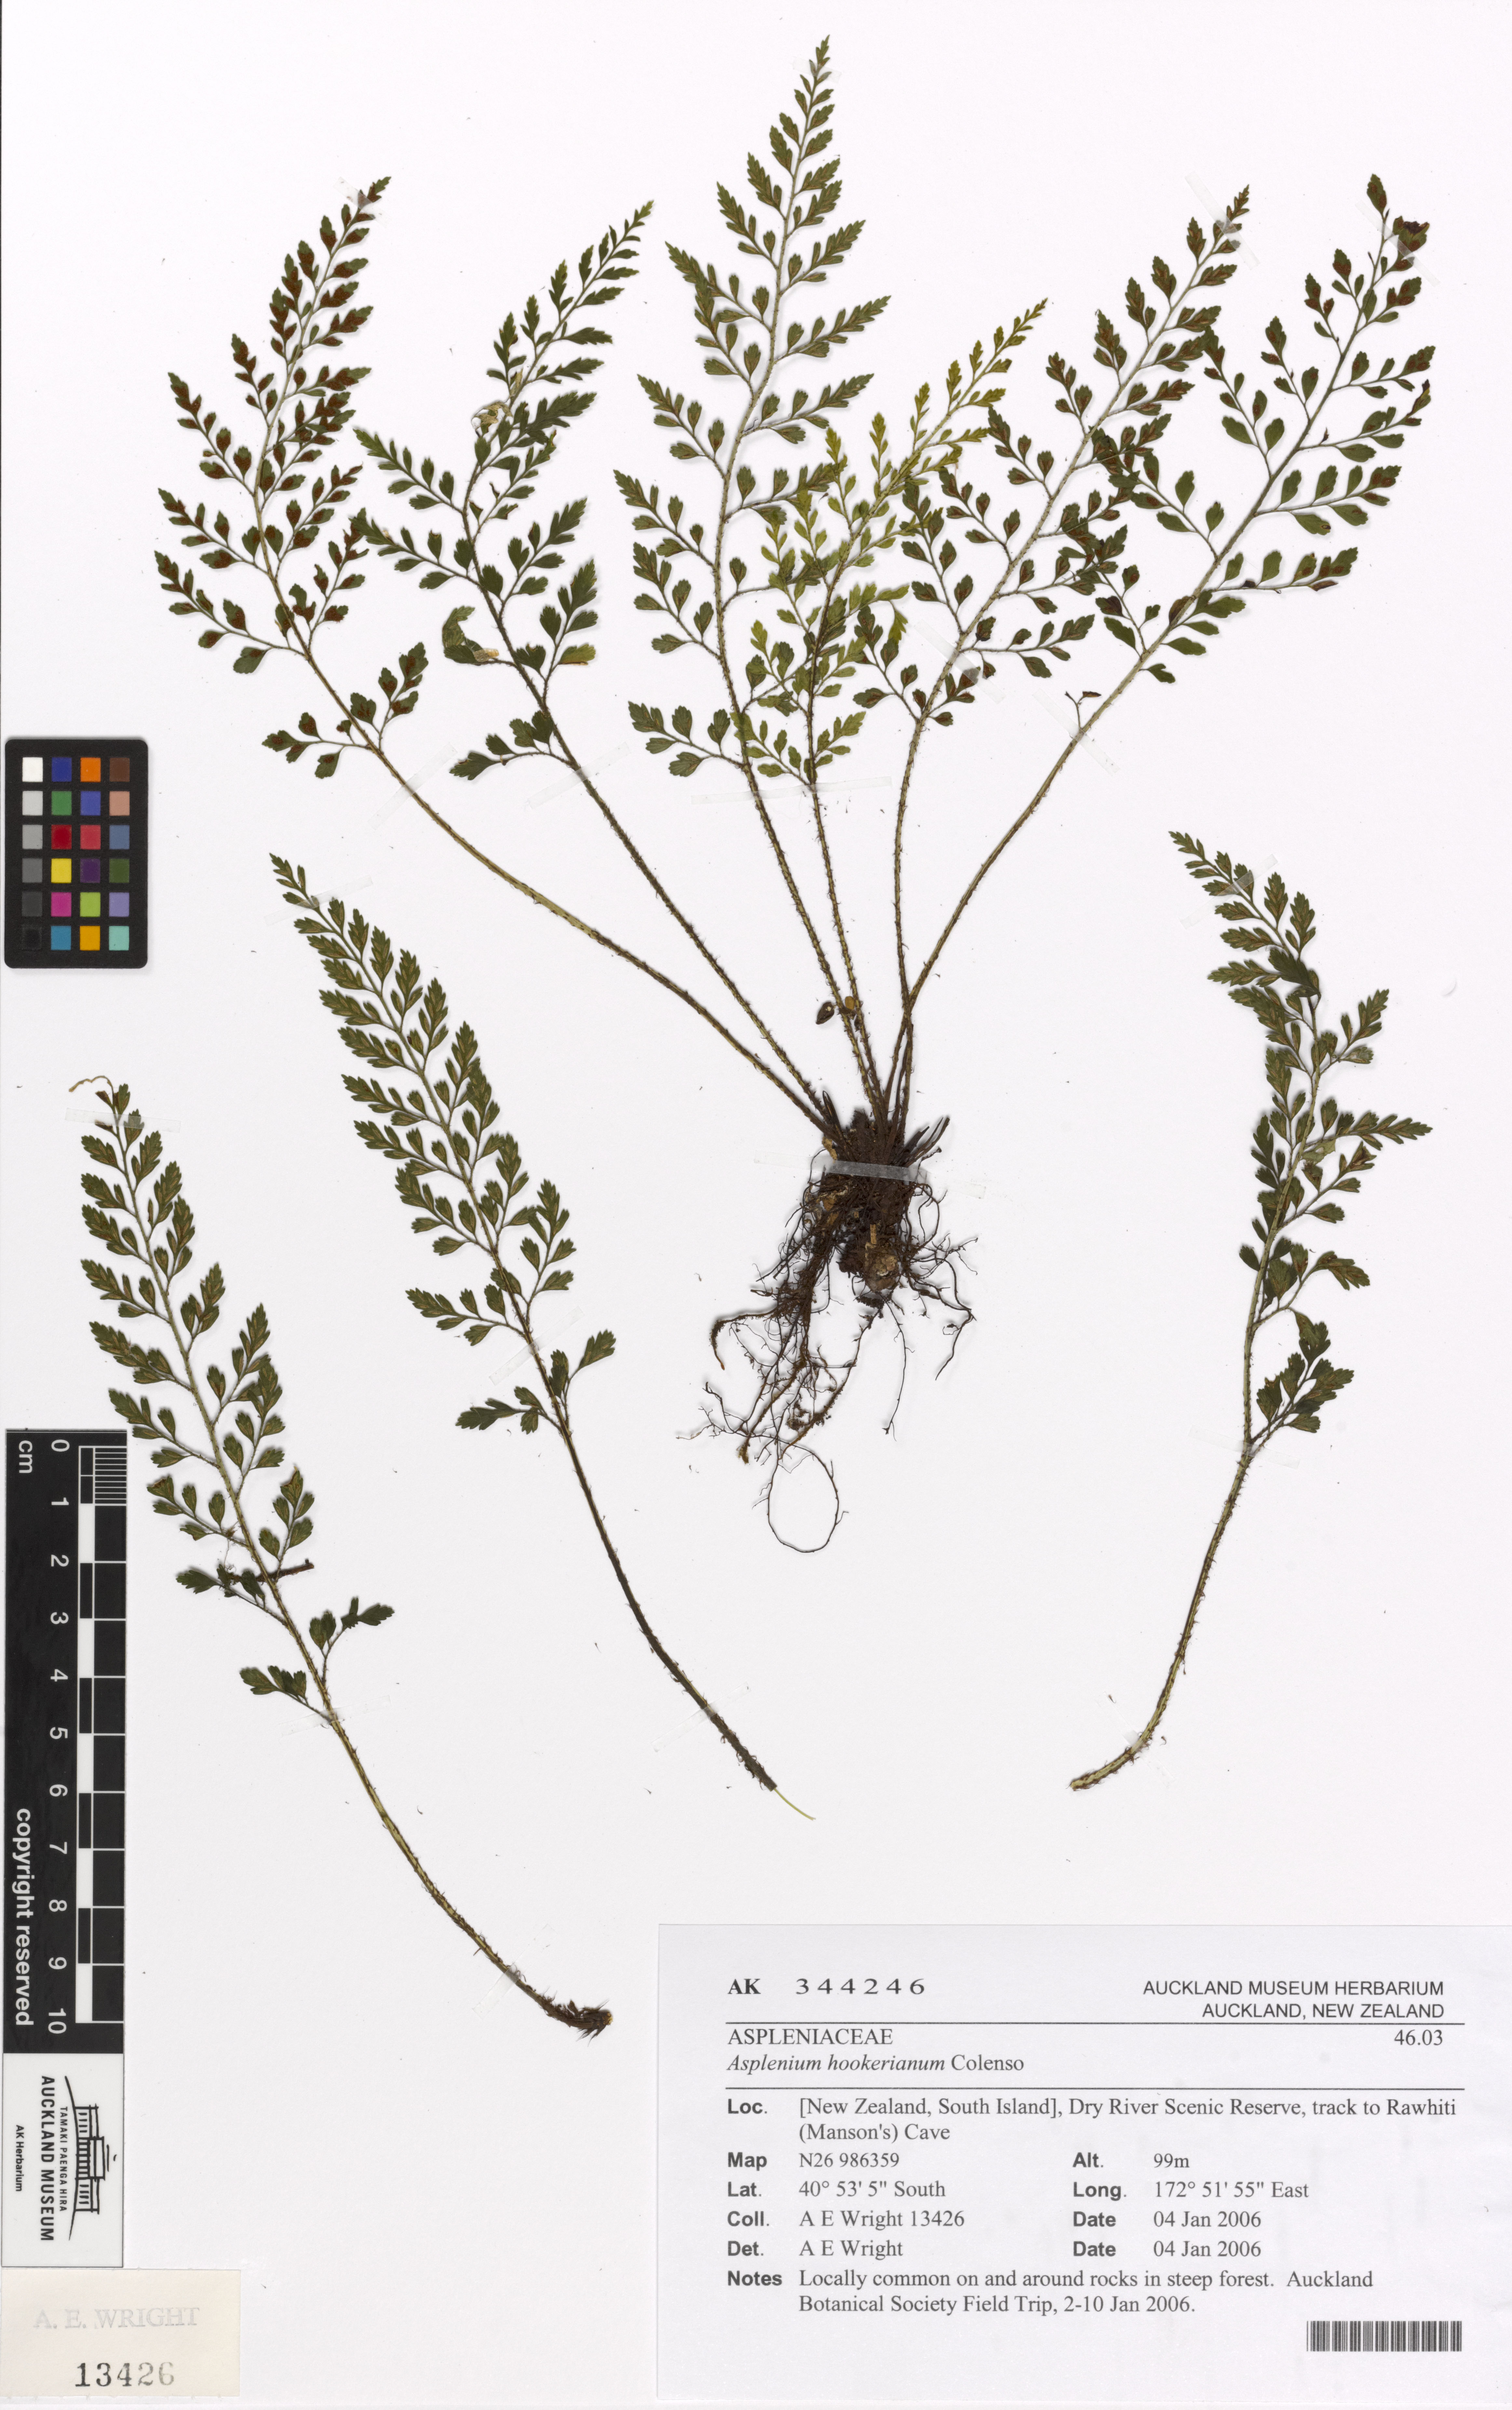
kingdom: Plantae
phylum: Tracheophyta
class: Polypodiopsida
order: Polypodiales
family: Aspleniaceae
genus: Asplenium
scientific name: Asplenium hookerianum
